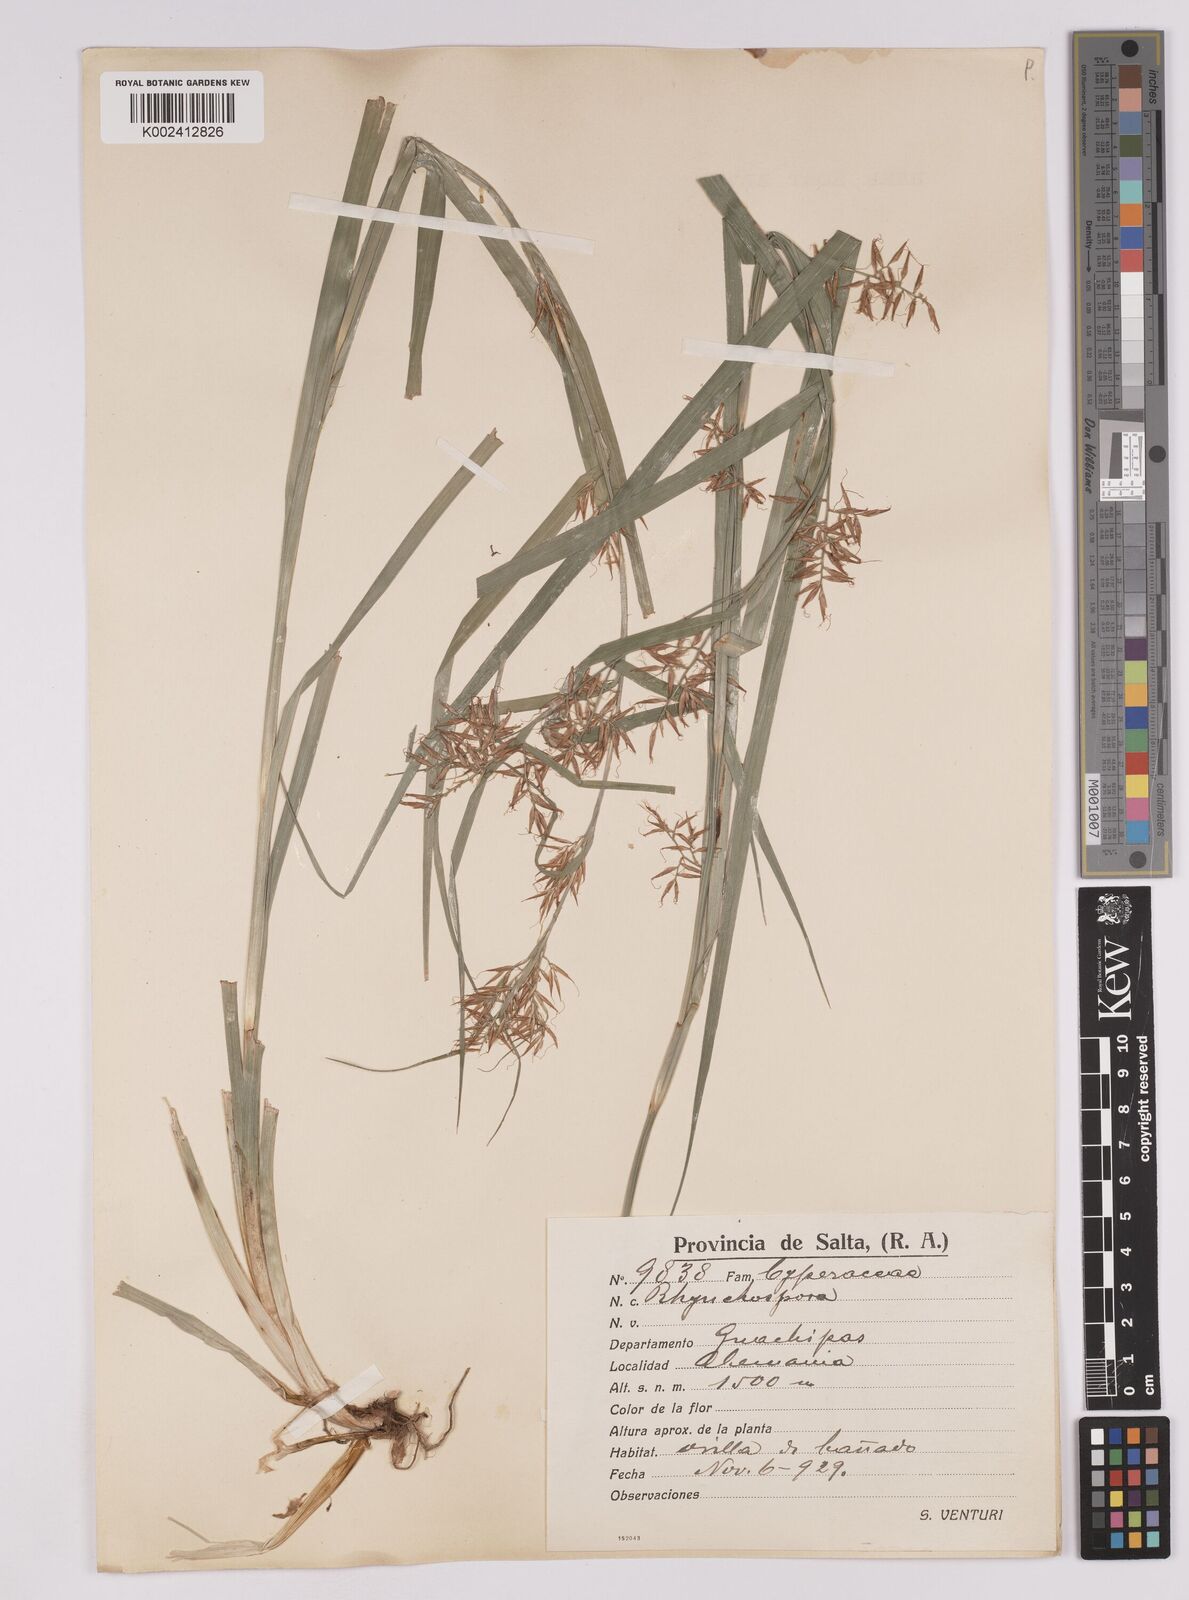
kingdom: Plantae
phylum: Tracheophyta
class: Liliopsida
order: Poales
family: Cyperaceae
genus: Rhynchospora
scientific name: Rhynchospora hieronymi
